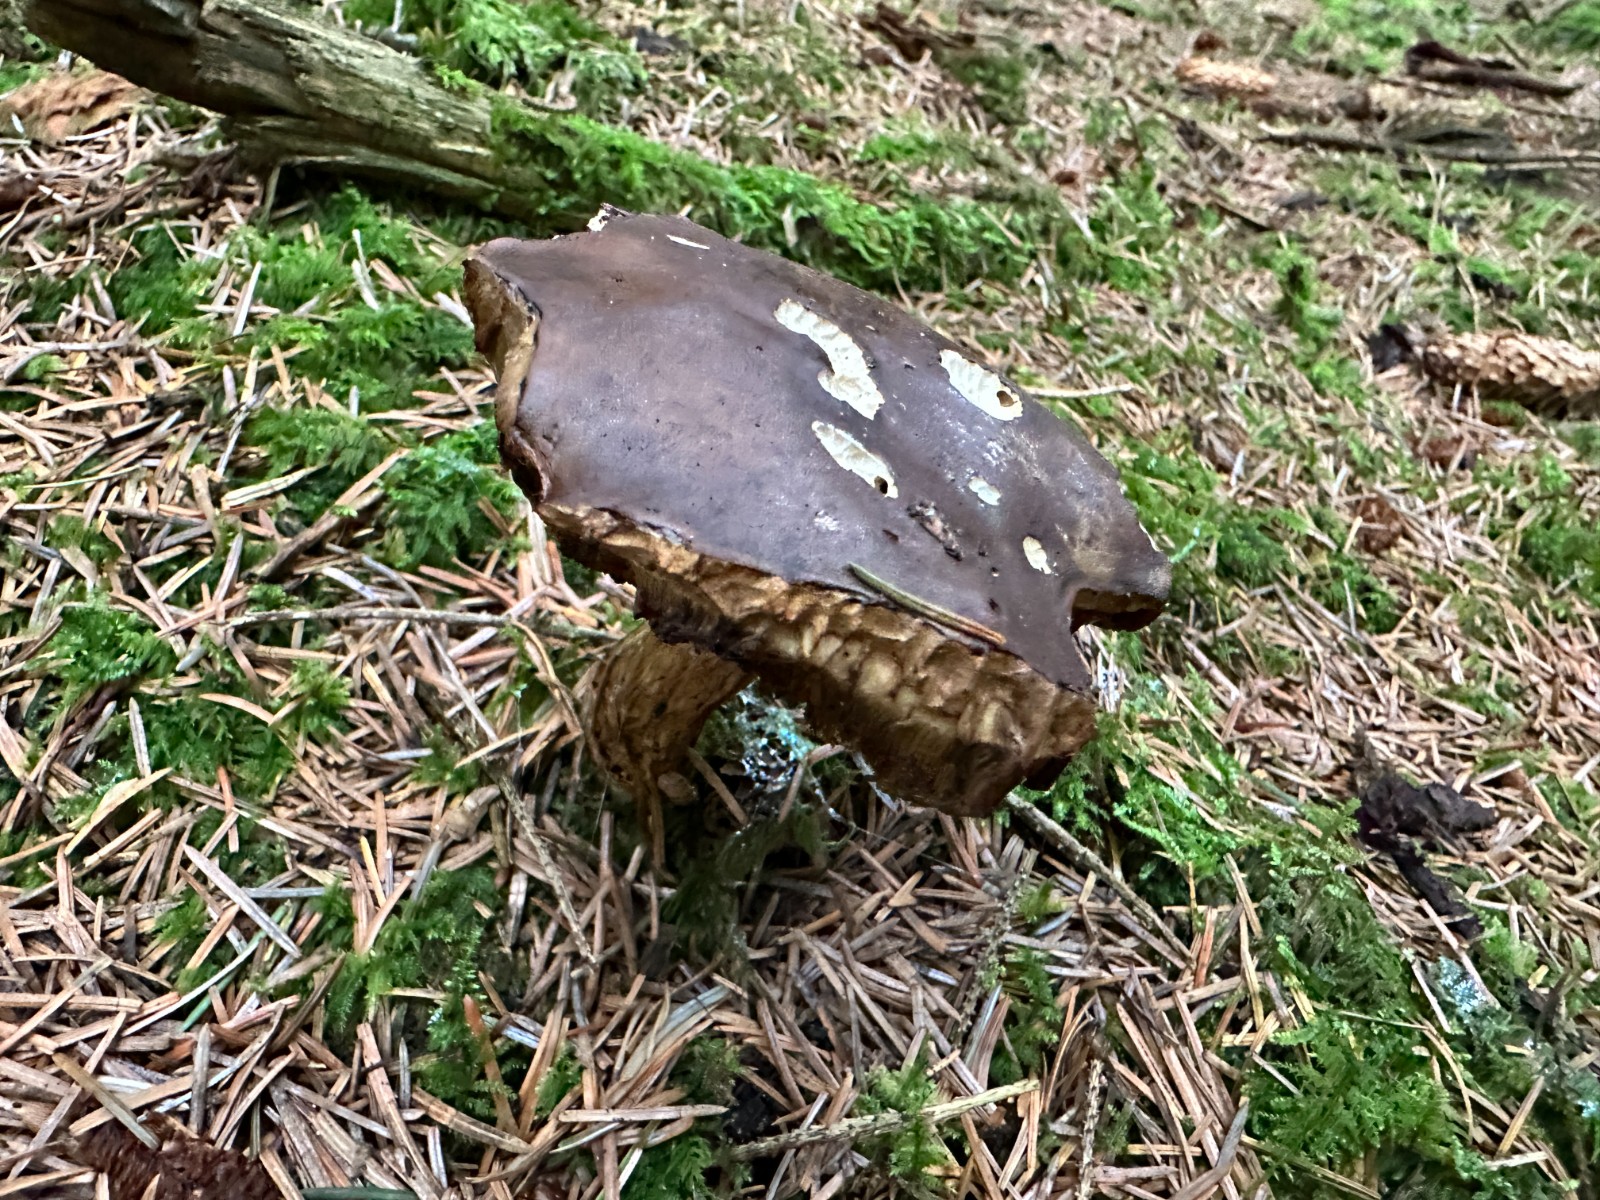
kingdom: Fungi
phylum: Basidiomycota
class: Agaricomycetes
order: Boletales
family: Boletaceae
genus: Imleria
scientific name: Imleria badia
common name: brunstokket rørhat
